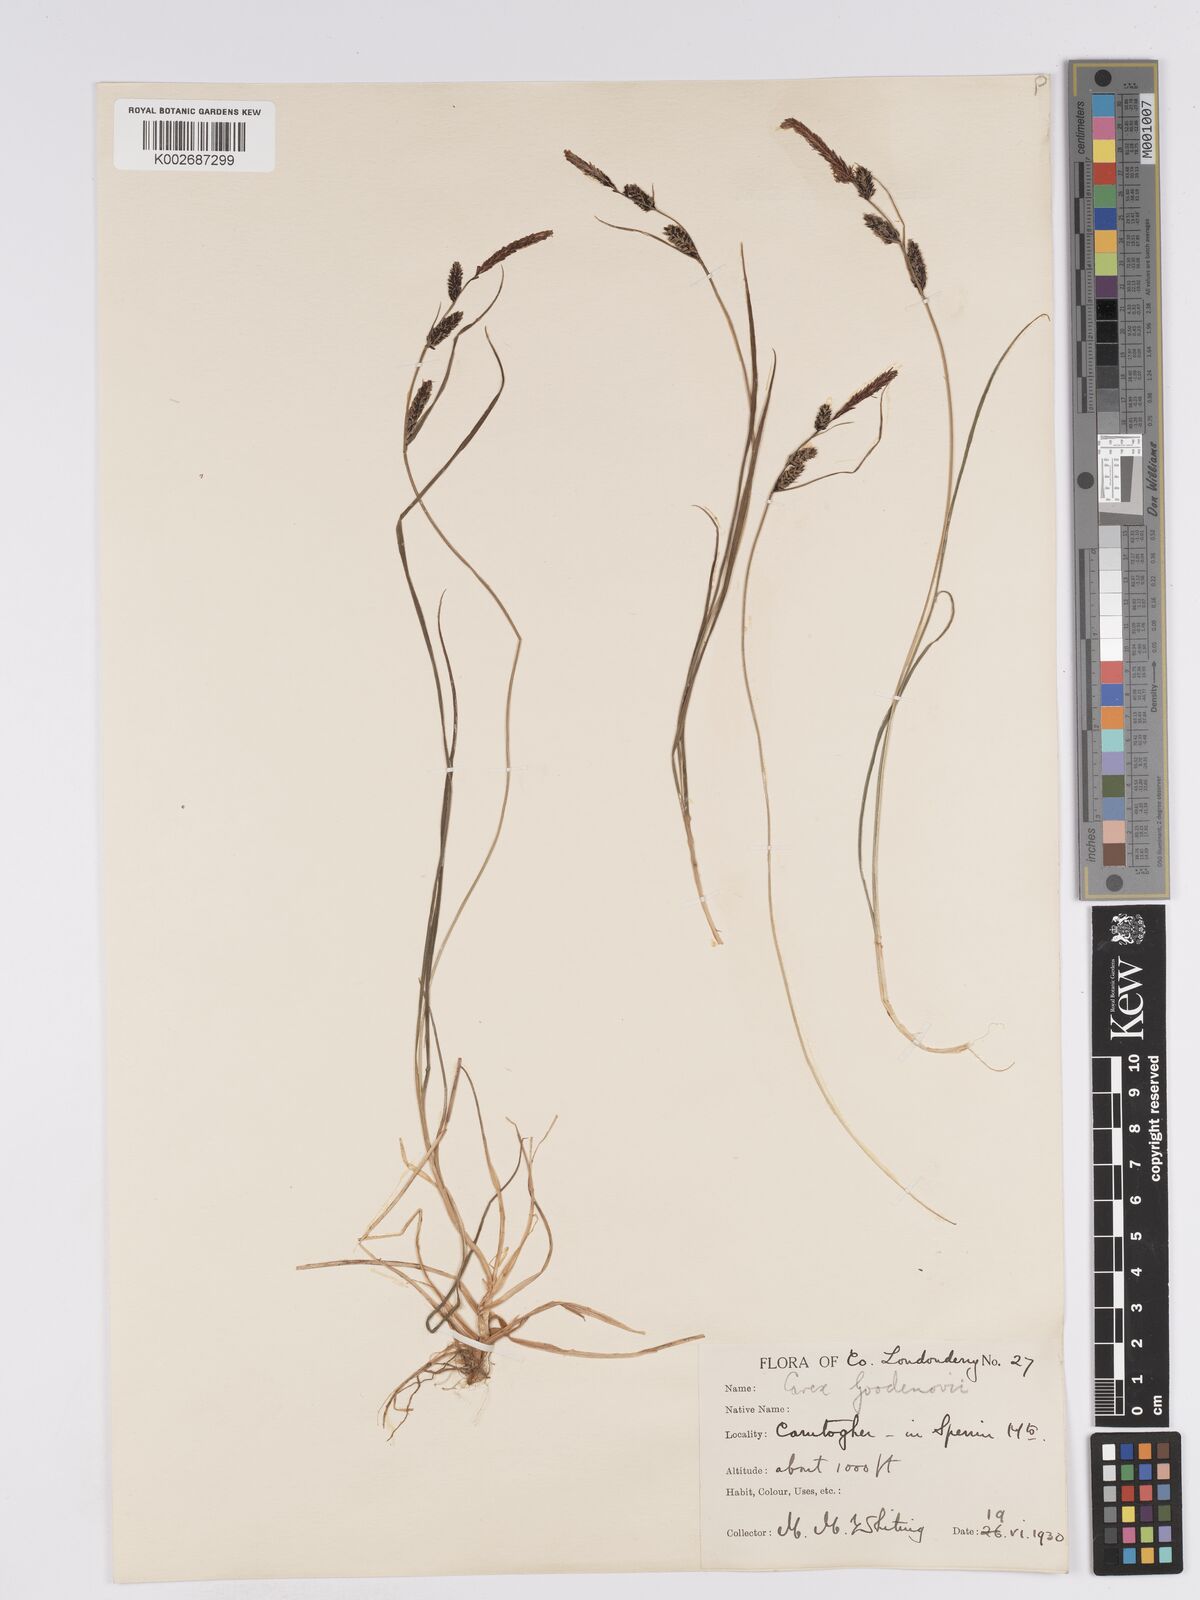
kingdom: Plantae
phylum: Tracheophyta
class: Liliopsida
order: Poales
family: Cyperaceae
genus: Carex
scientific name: Carex nigra
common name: Common sedge
